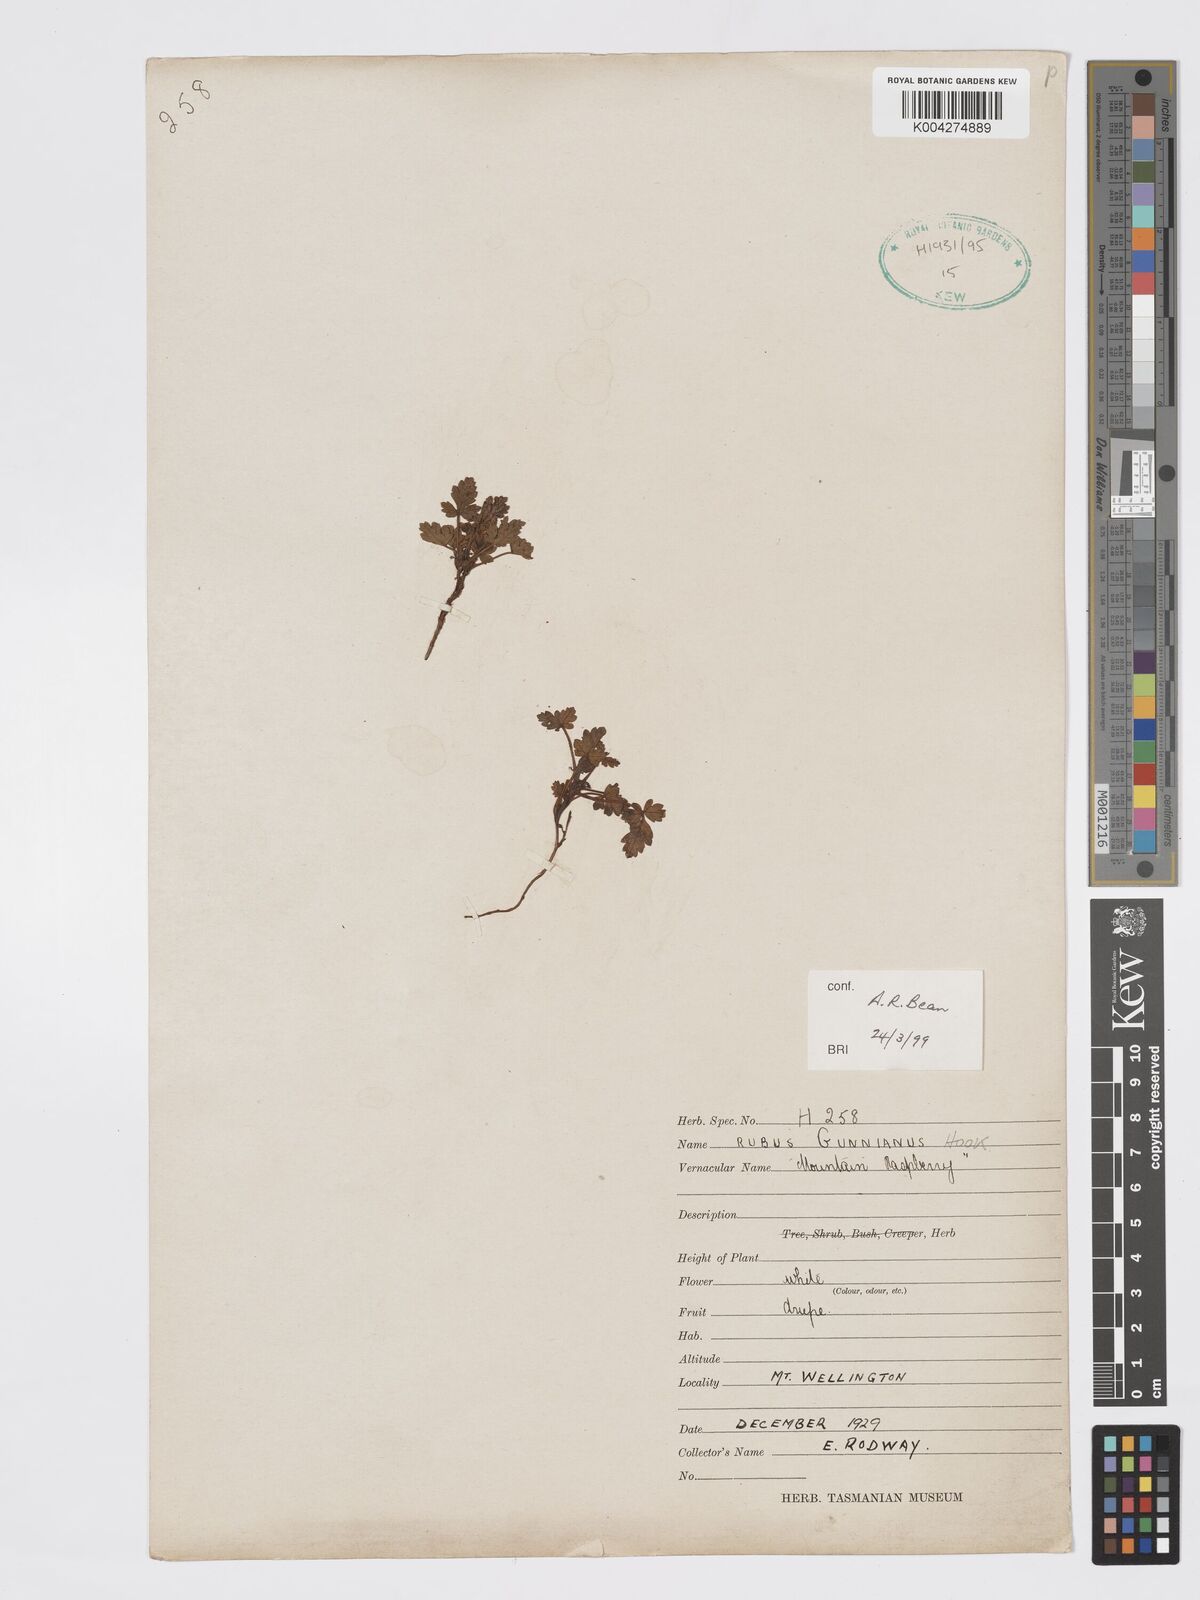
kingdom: Plantae
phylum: Tracheophyta
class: Magnoliopsida
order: Rosales
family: Rosaceae
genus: Rubus
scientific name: Rubus gunnianus
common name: Mountain raspberry
